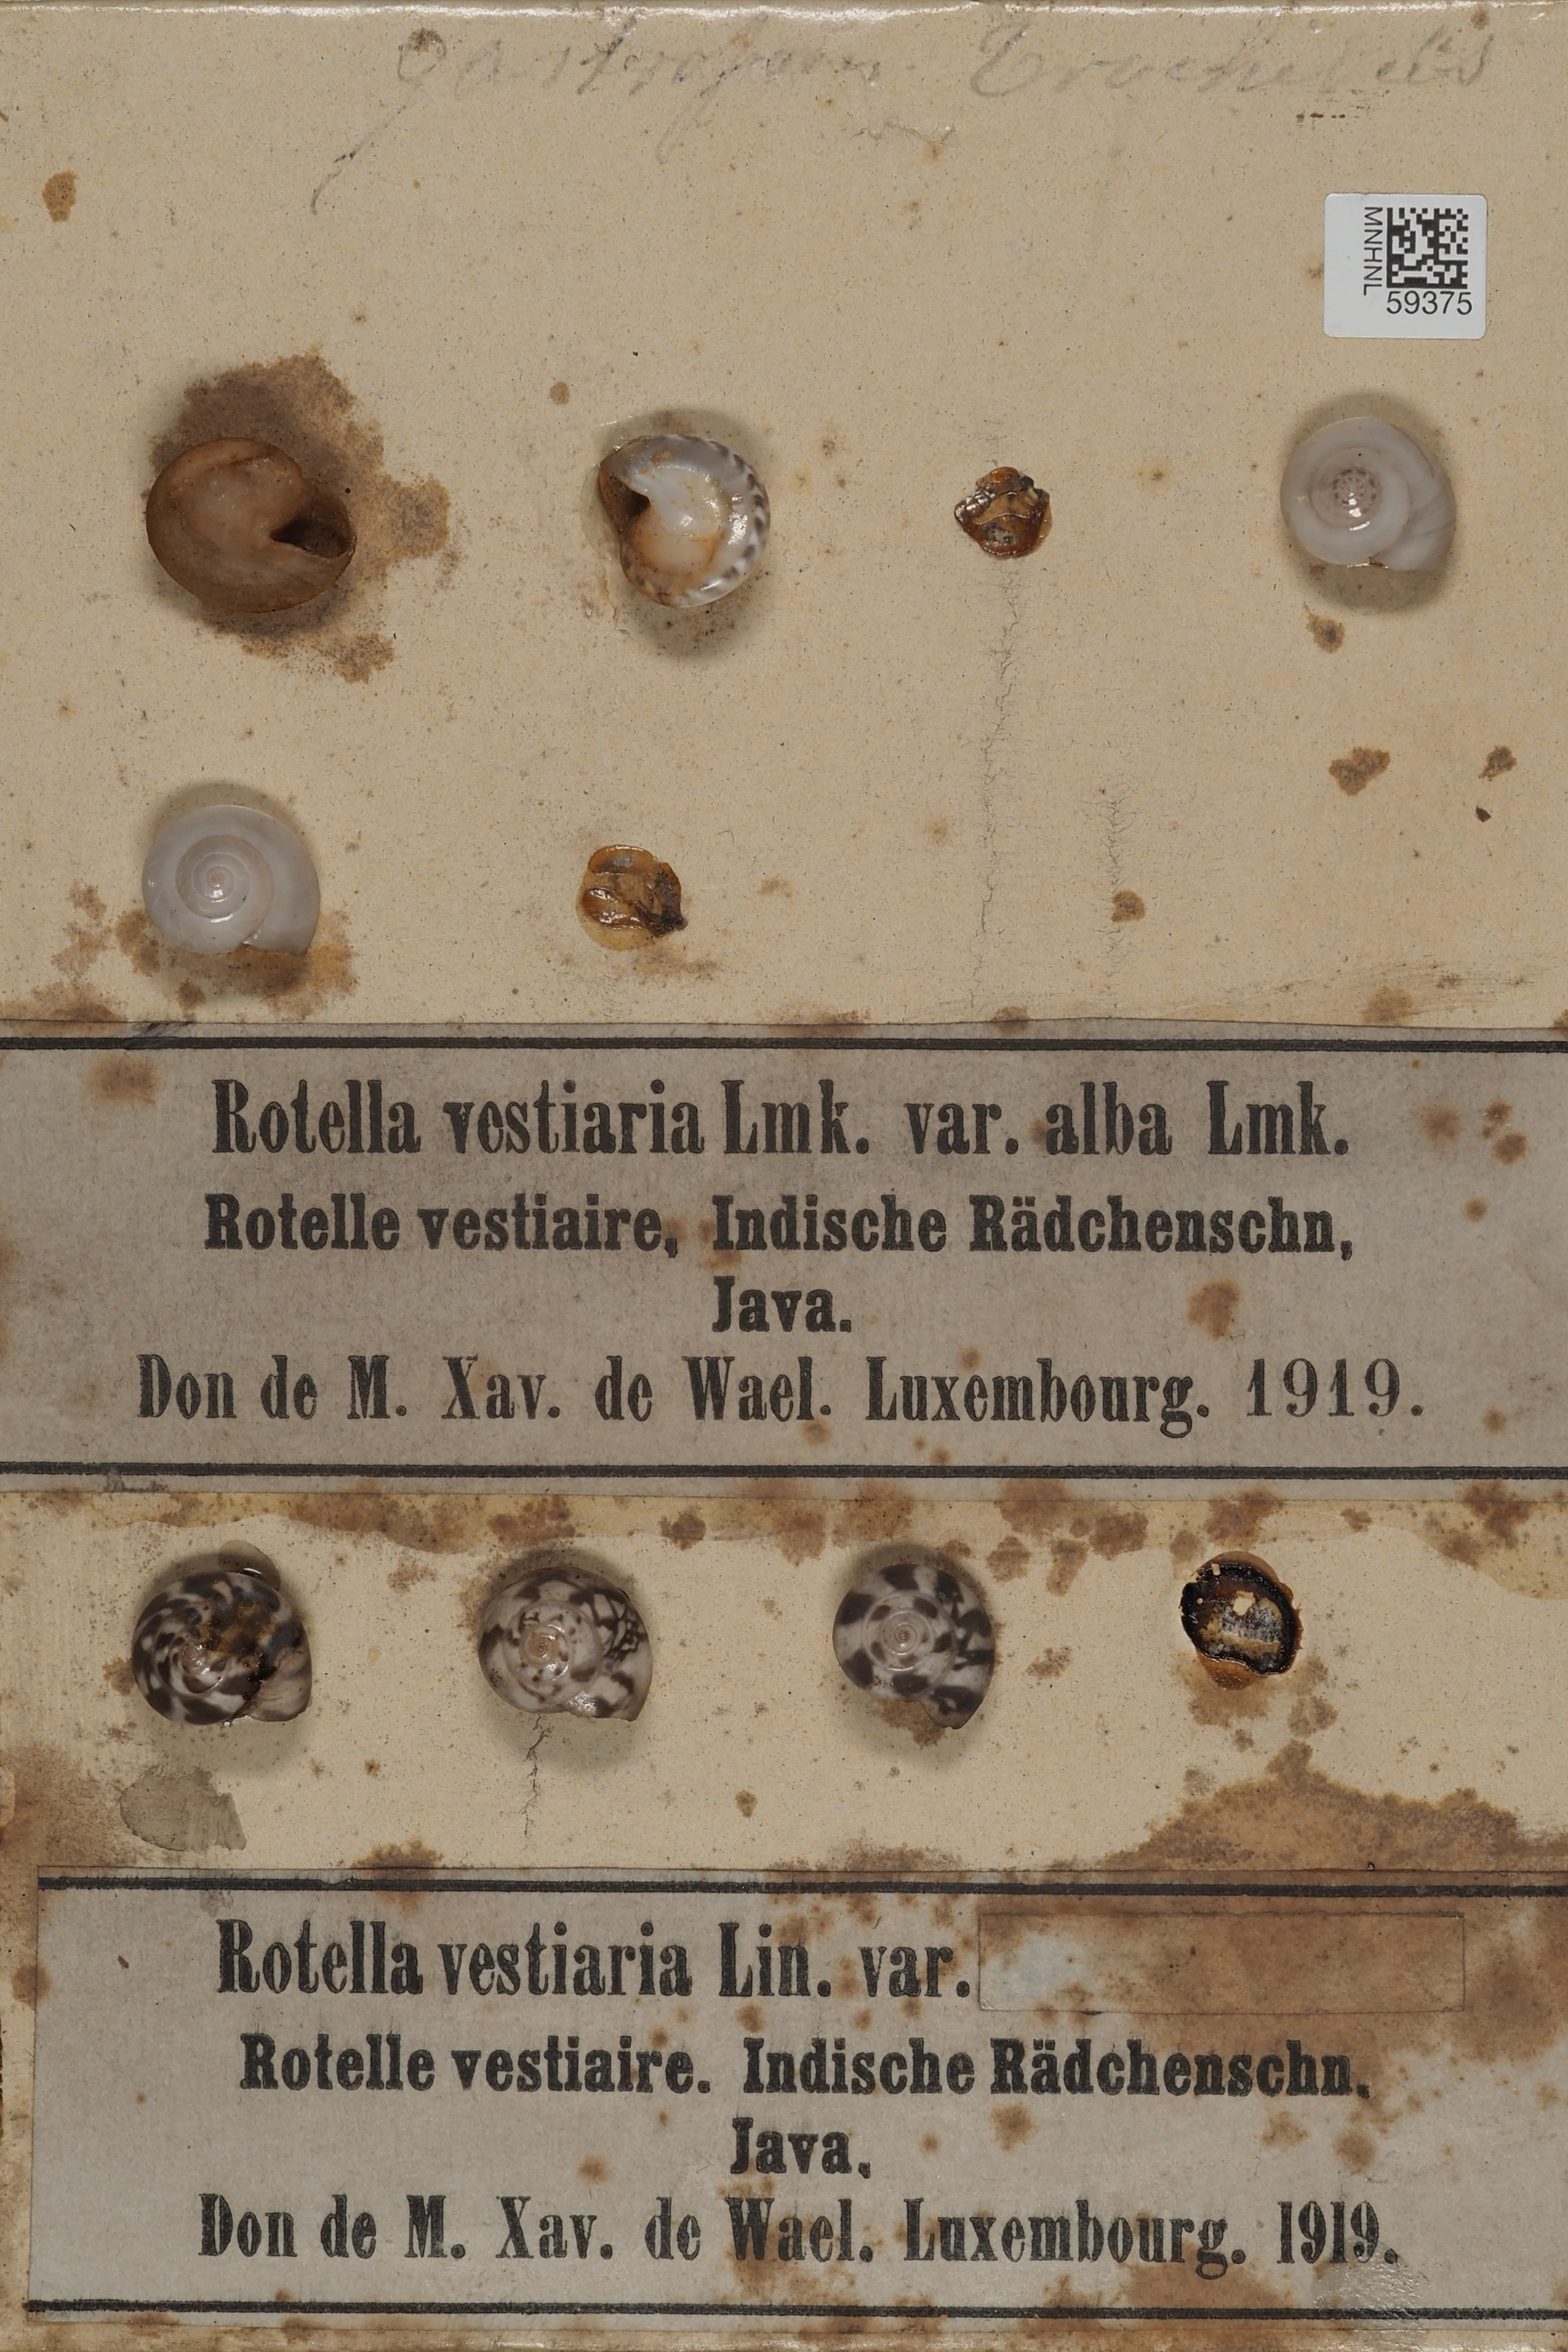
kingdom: Animalia
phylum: Mollusca
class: Gastropoda
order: Trochida
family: Trochidae
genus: Umbonium
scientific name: Umbonium vestiarium
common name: Button tops
